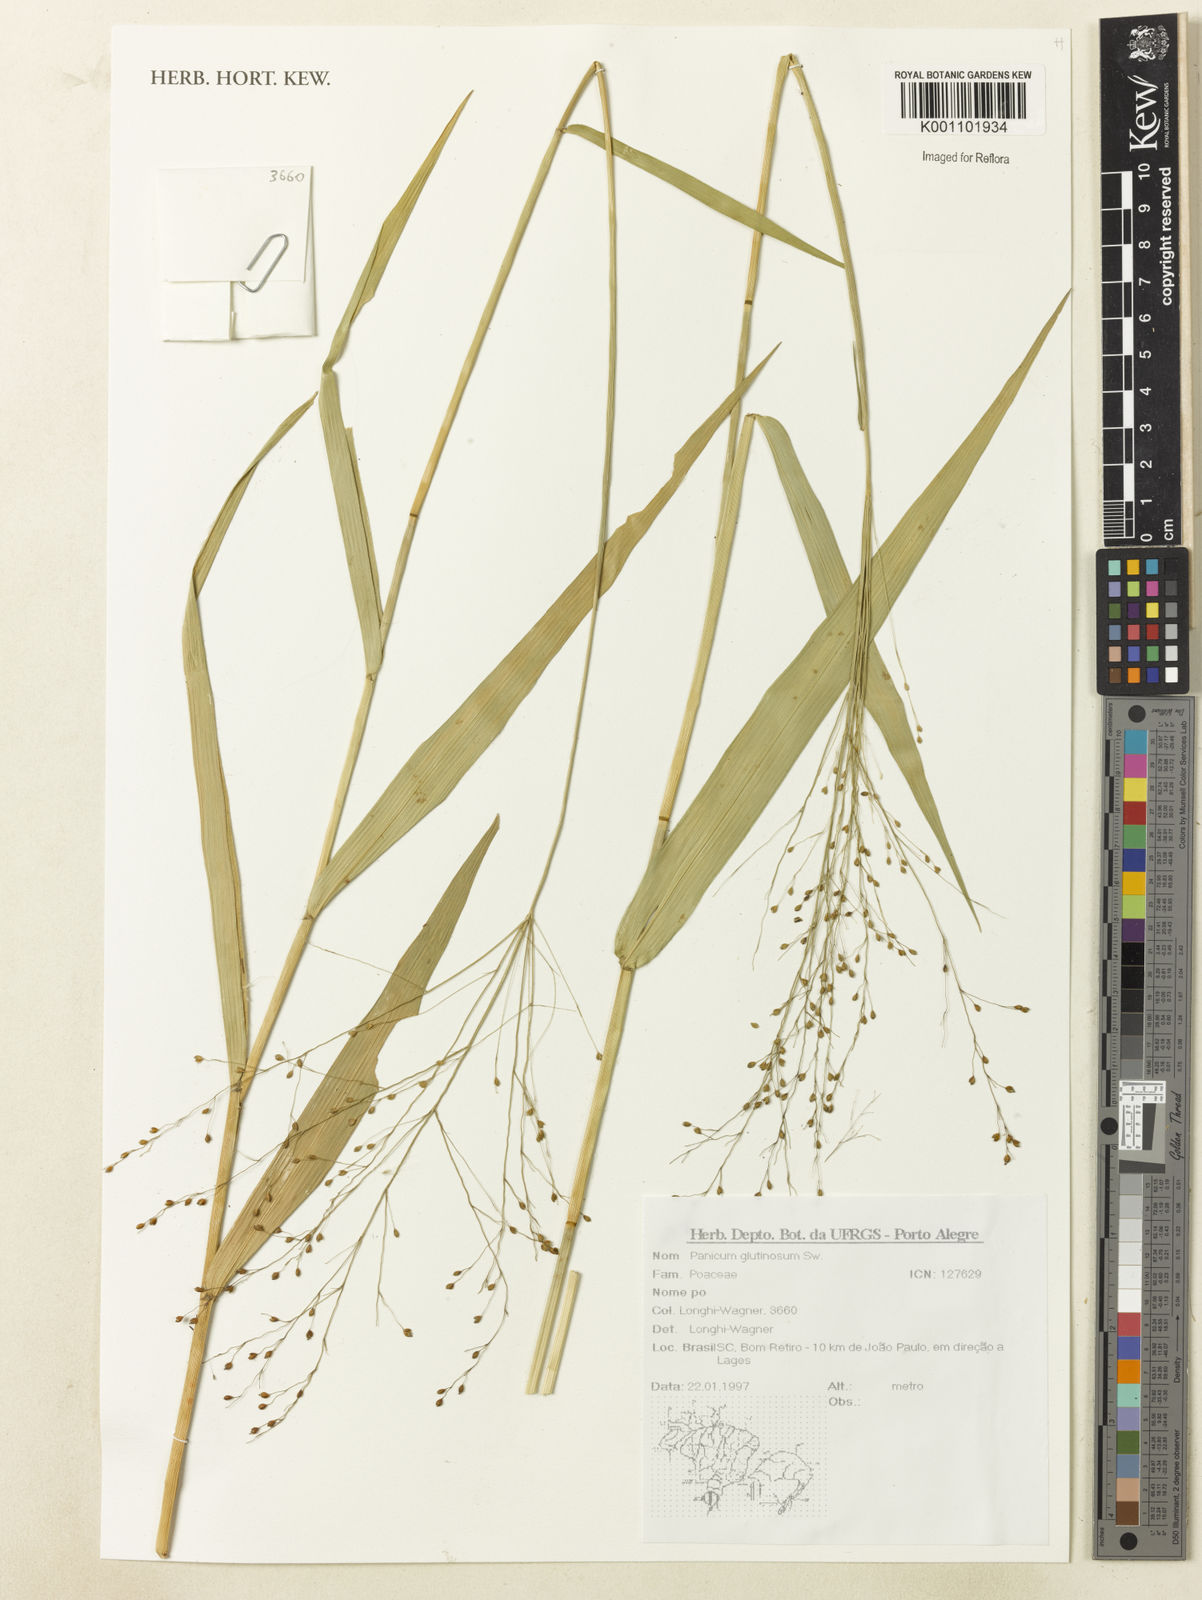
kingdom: Plantae
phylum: Tracheophyta
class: Liliopsida
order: Poales
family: Poaceae
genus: Homolepis
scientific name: Homolepis glutinosa
